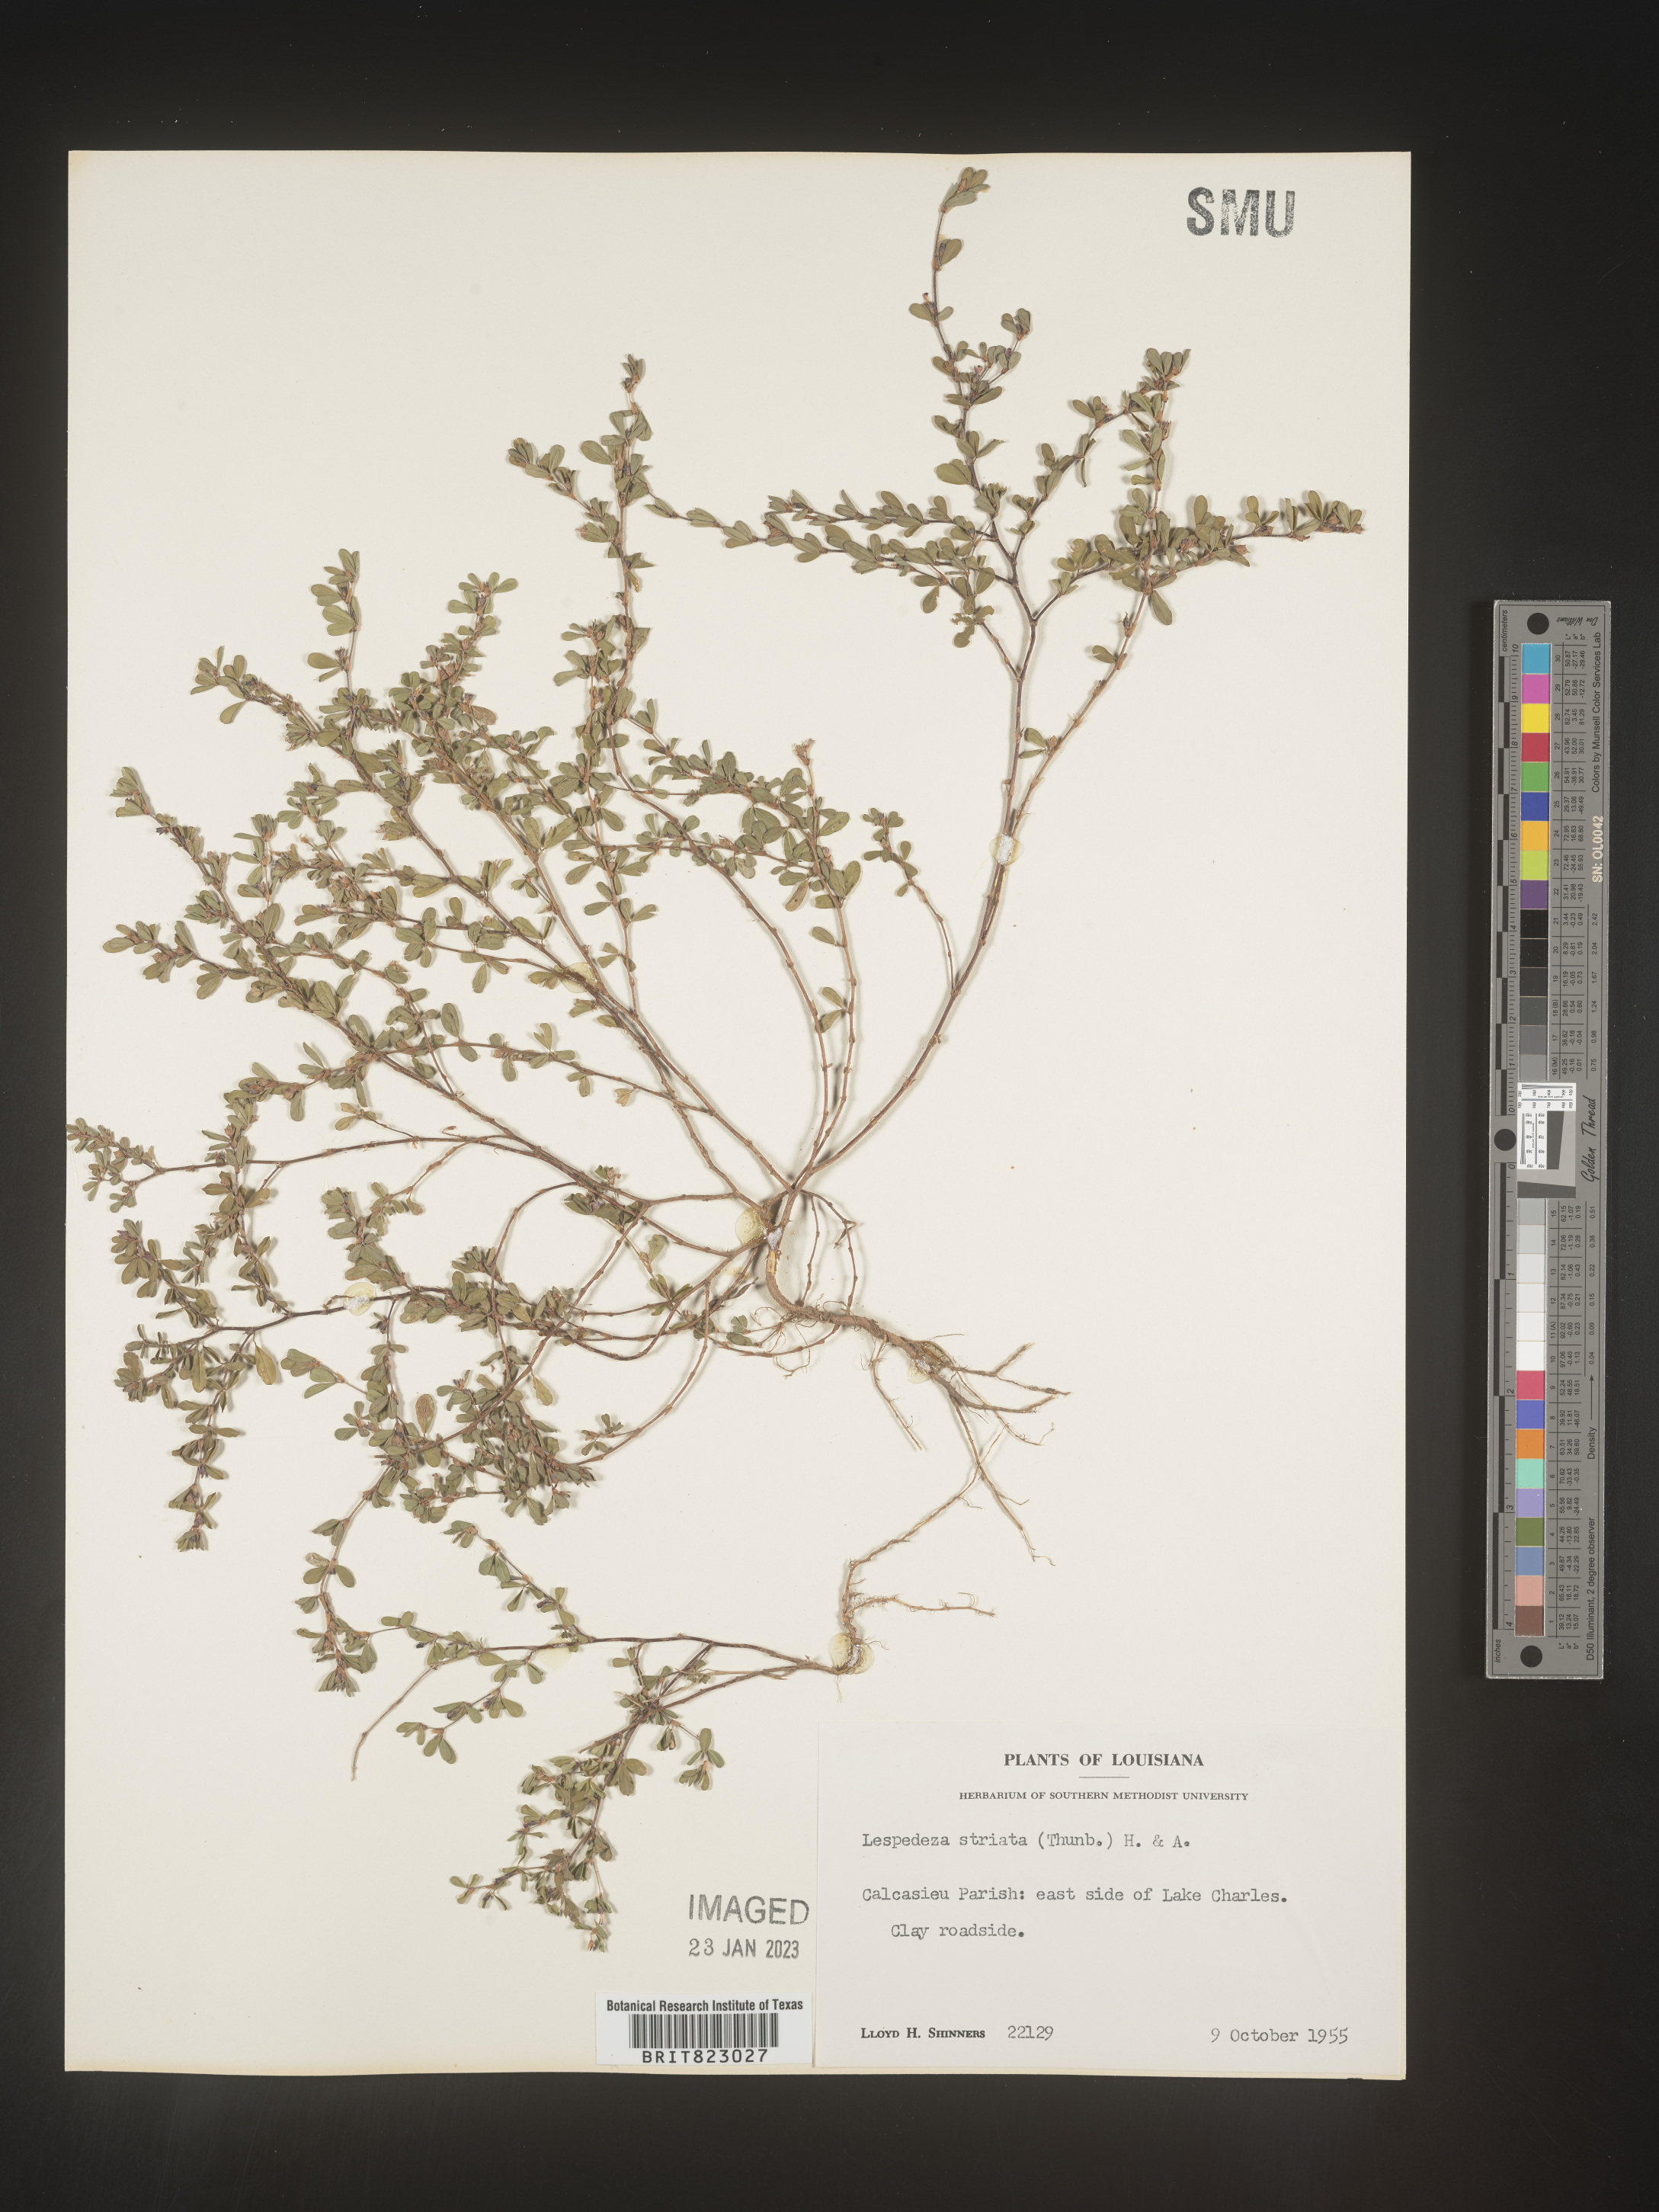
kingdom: Plantae
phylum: Tracheophyta
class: Magnoliopsida
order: Fabales
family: Fabaceae
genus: Kummerowia
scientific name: Kummerowia striata
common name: Japanese clover
